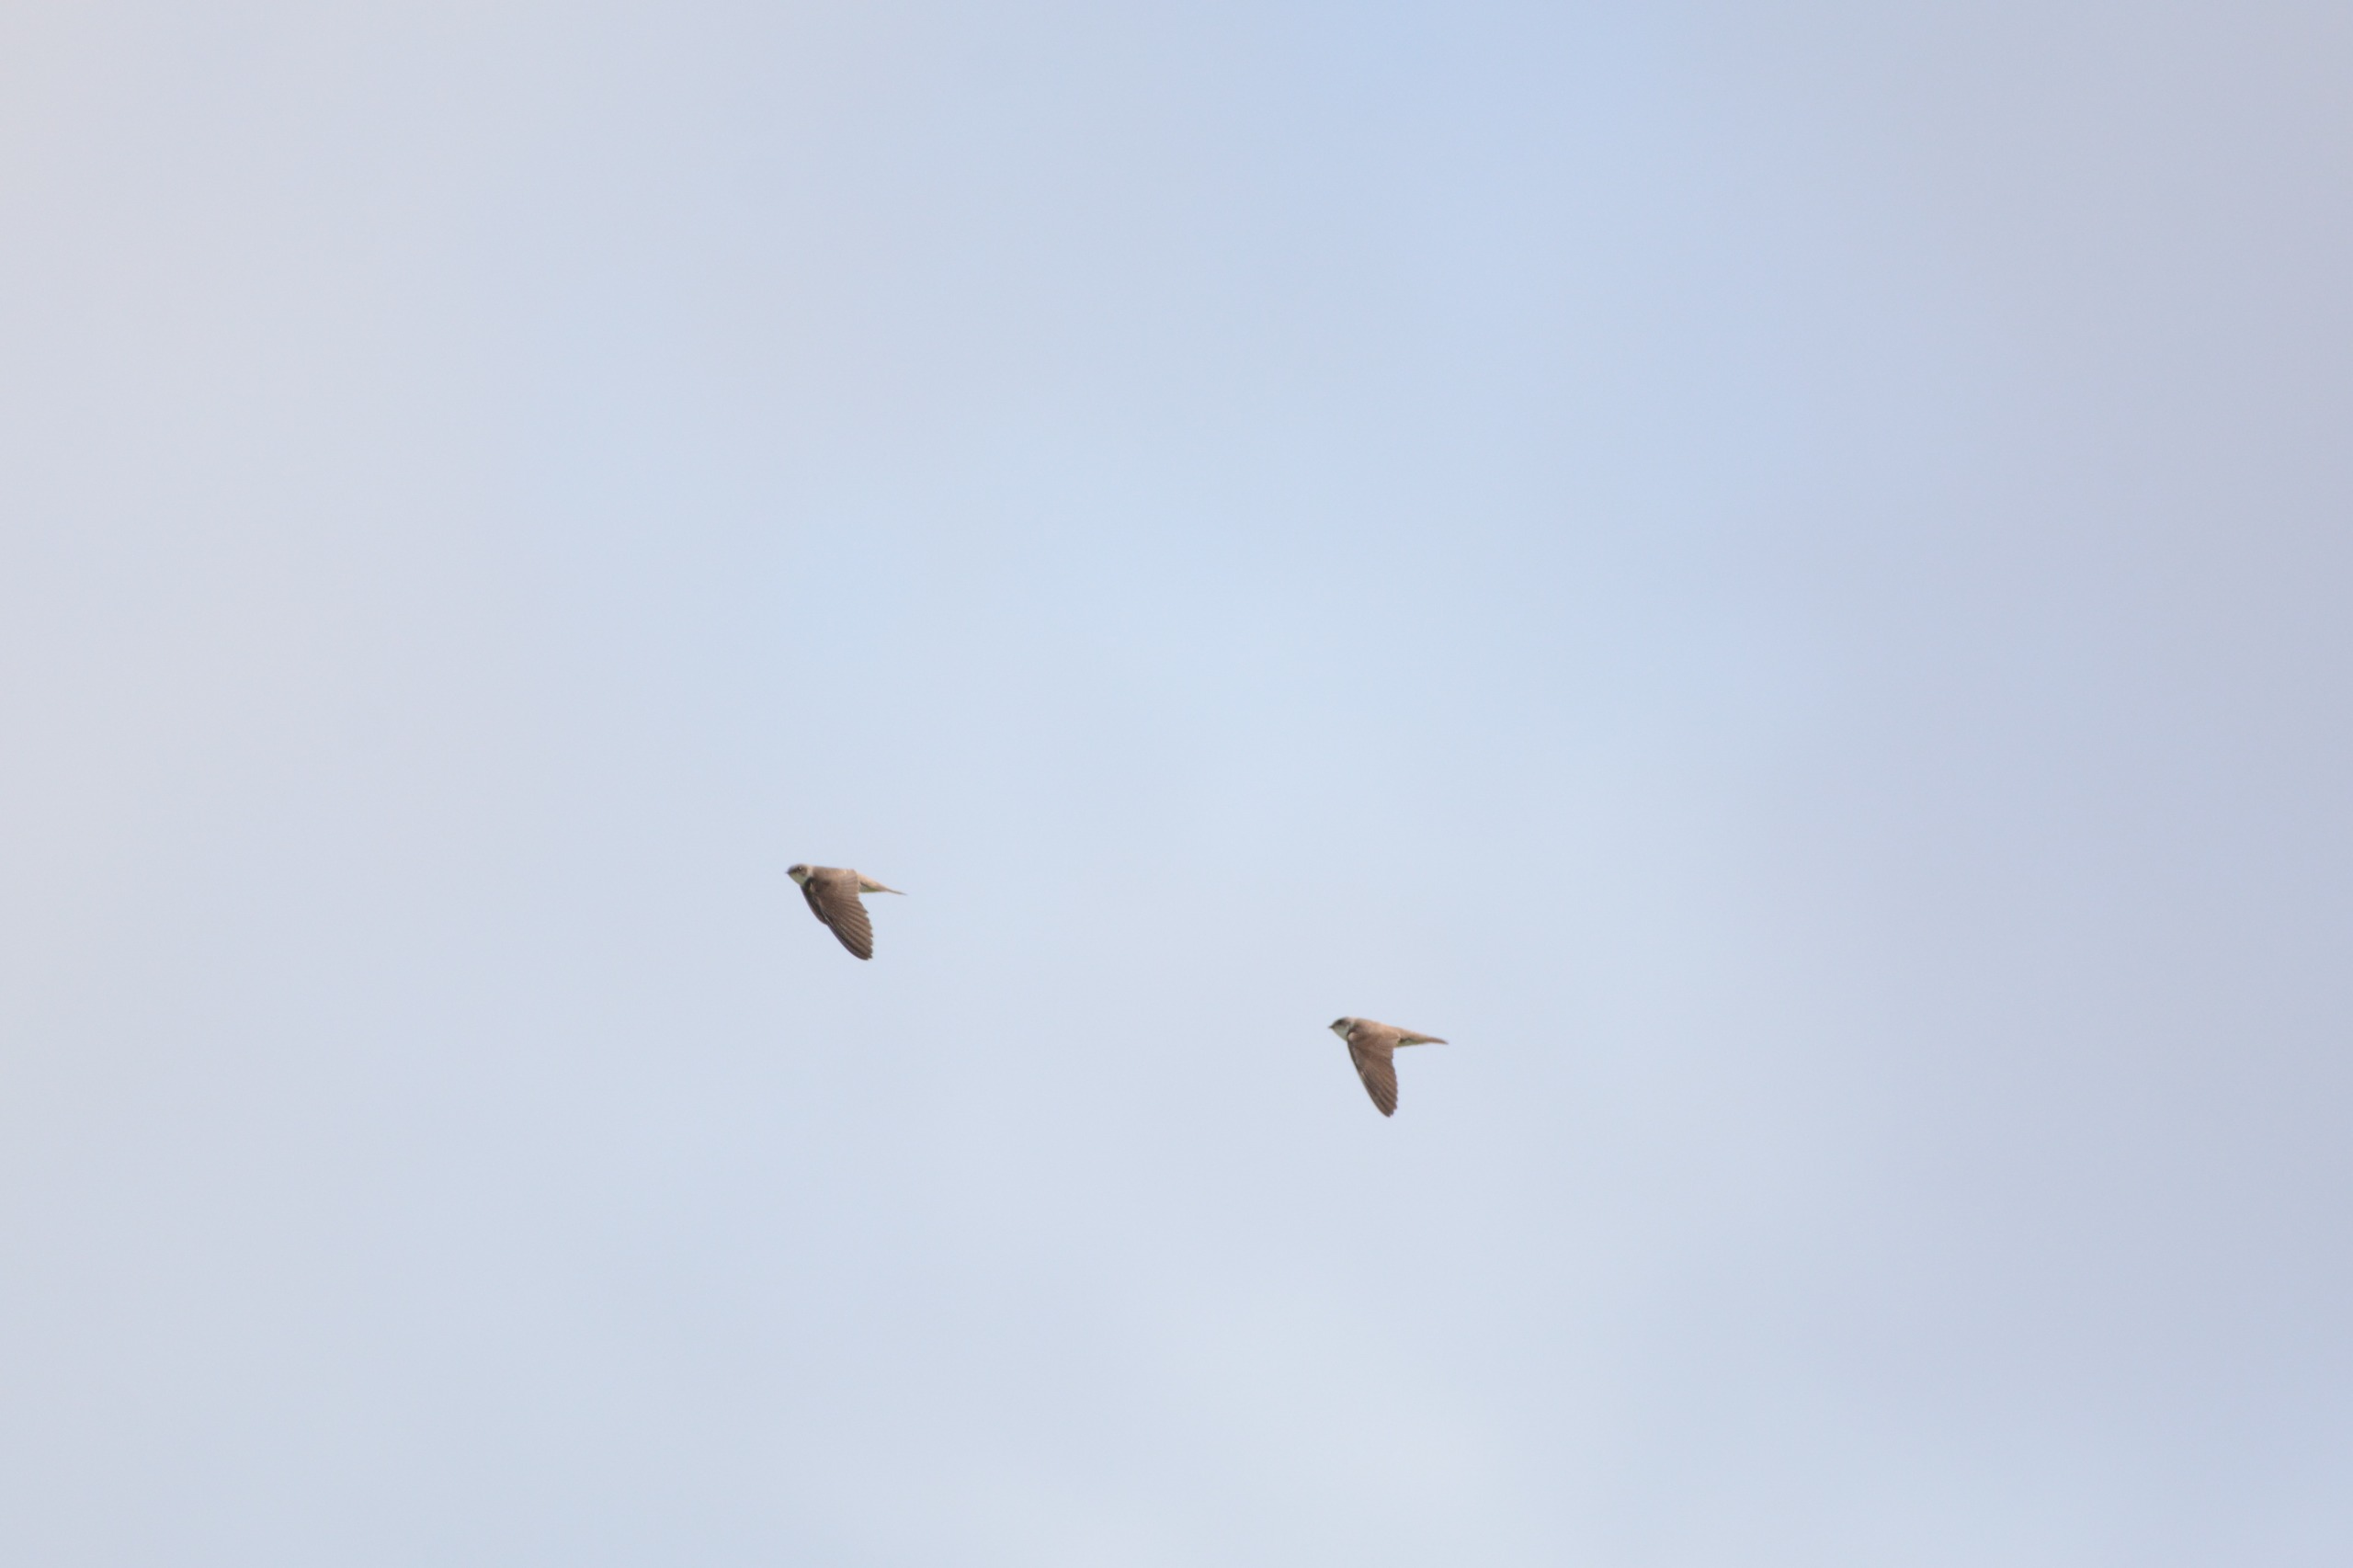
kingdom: Animalia
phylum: Chordata
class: Aves
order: Passeriformes
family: Hirundinidae
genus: Riparia
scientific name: Riparia riparia
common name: Digesvale
